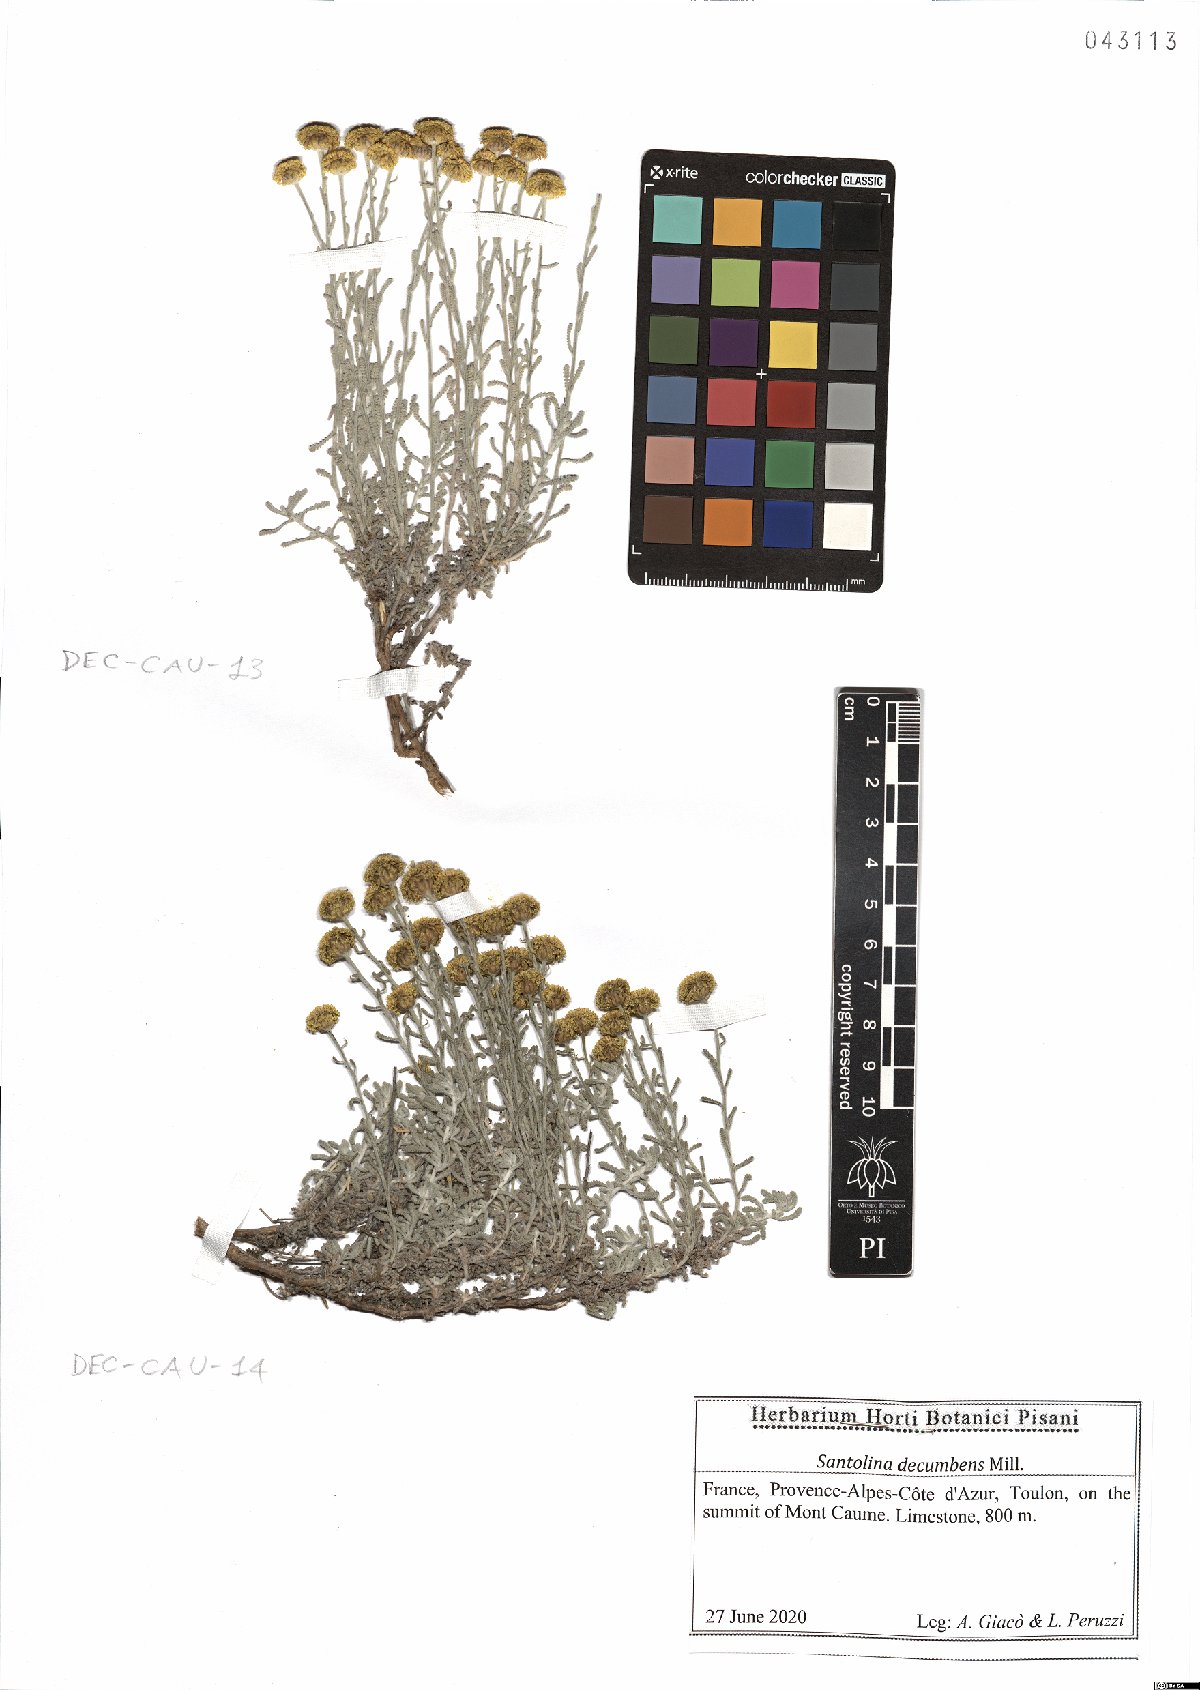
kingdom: Plantae
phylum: Tracheophyta
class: Magnoliopsida
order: Asterales
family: Asteraceae
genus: Santolina
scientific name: Santolina decumbens
